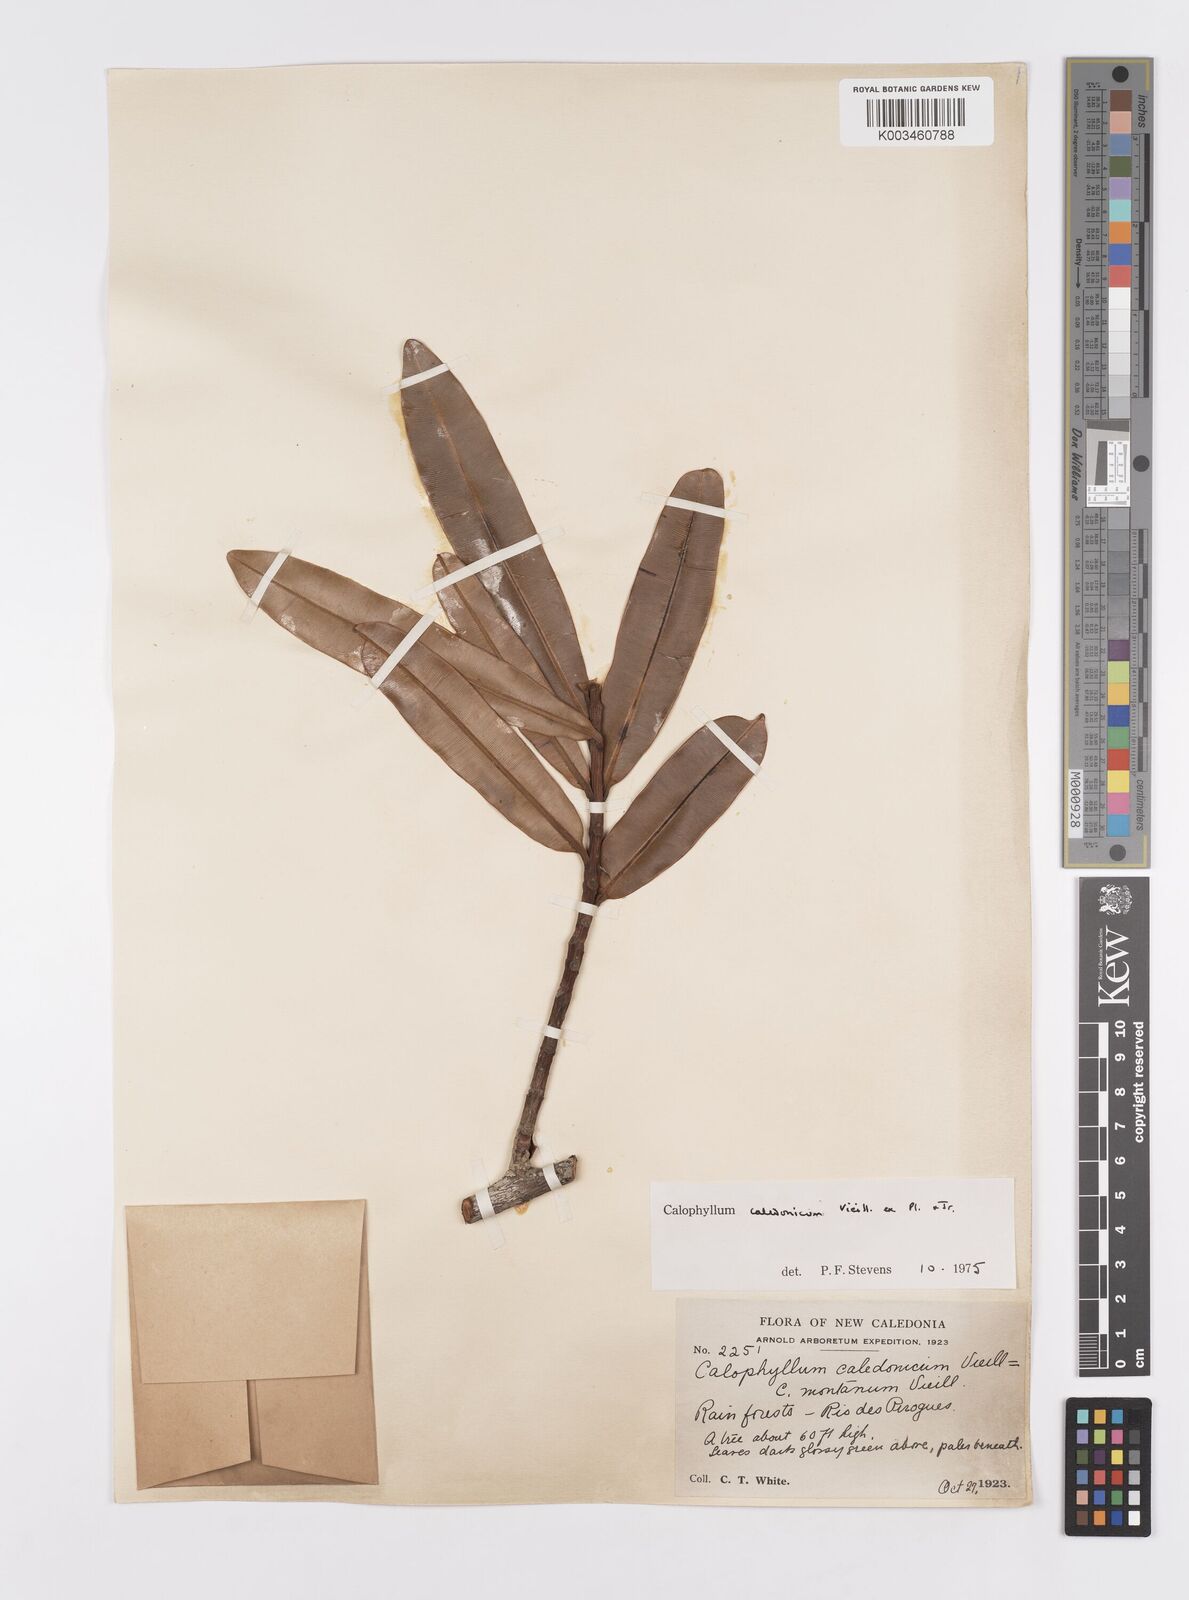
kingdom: Plantae
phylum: Tracheophyta
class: Magnoliopsida
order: Malpighiales
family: Calophyllaceae
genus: Calophyllum
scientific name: Calophyllum caledonicum
